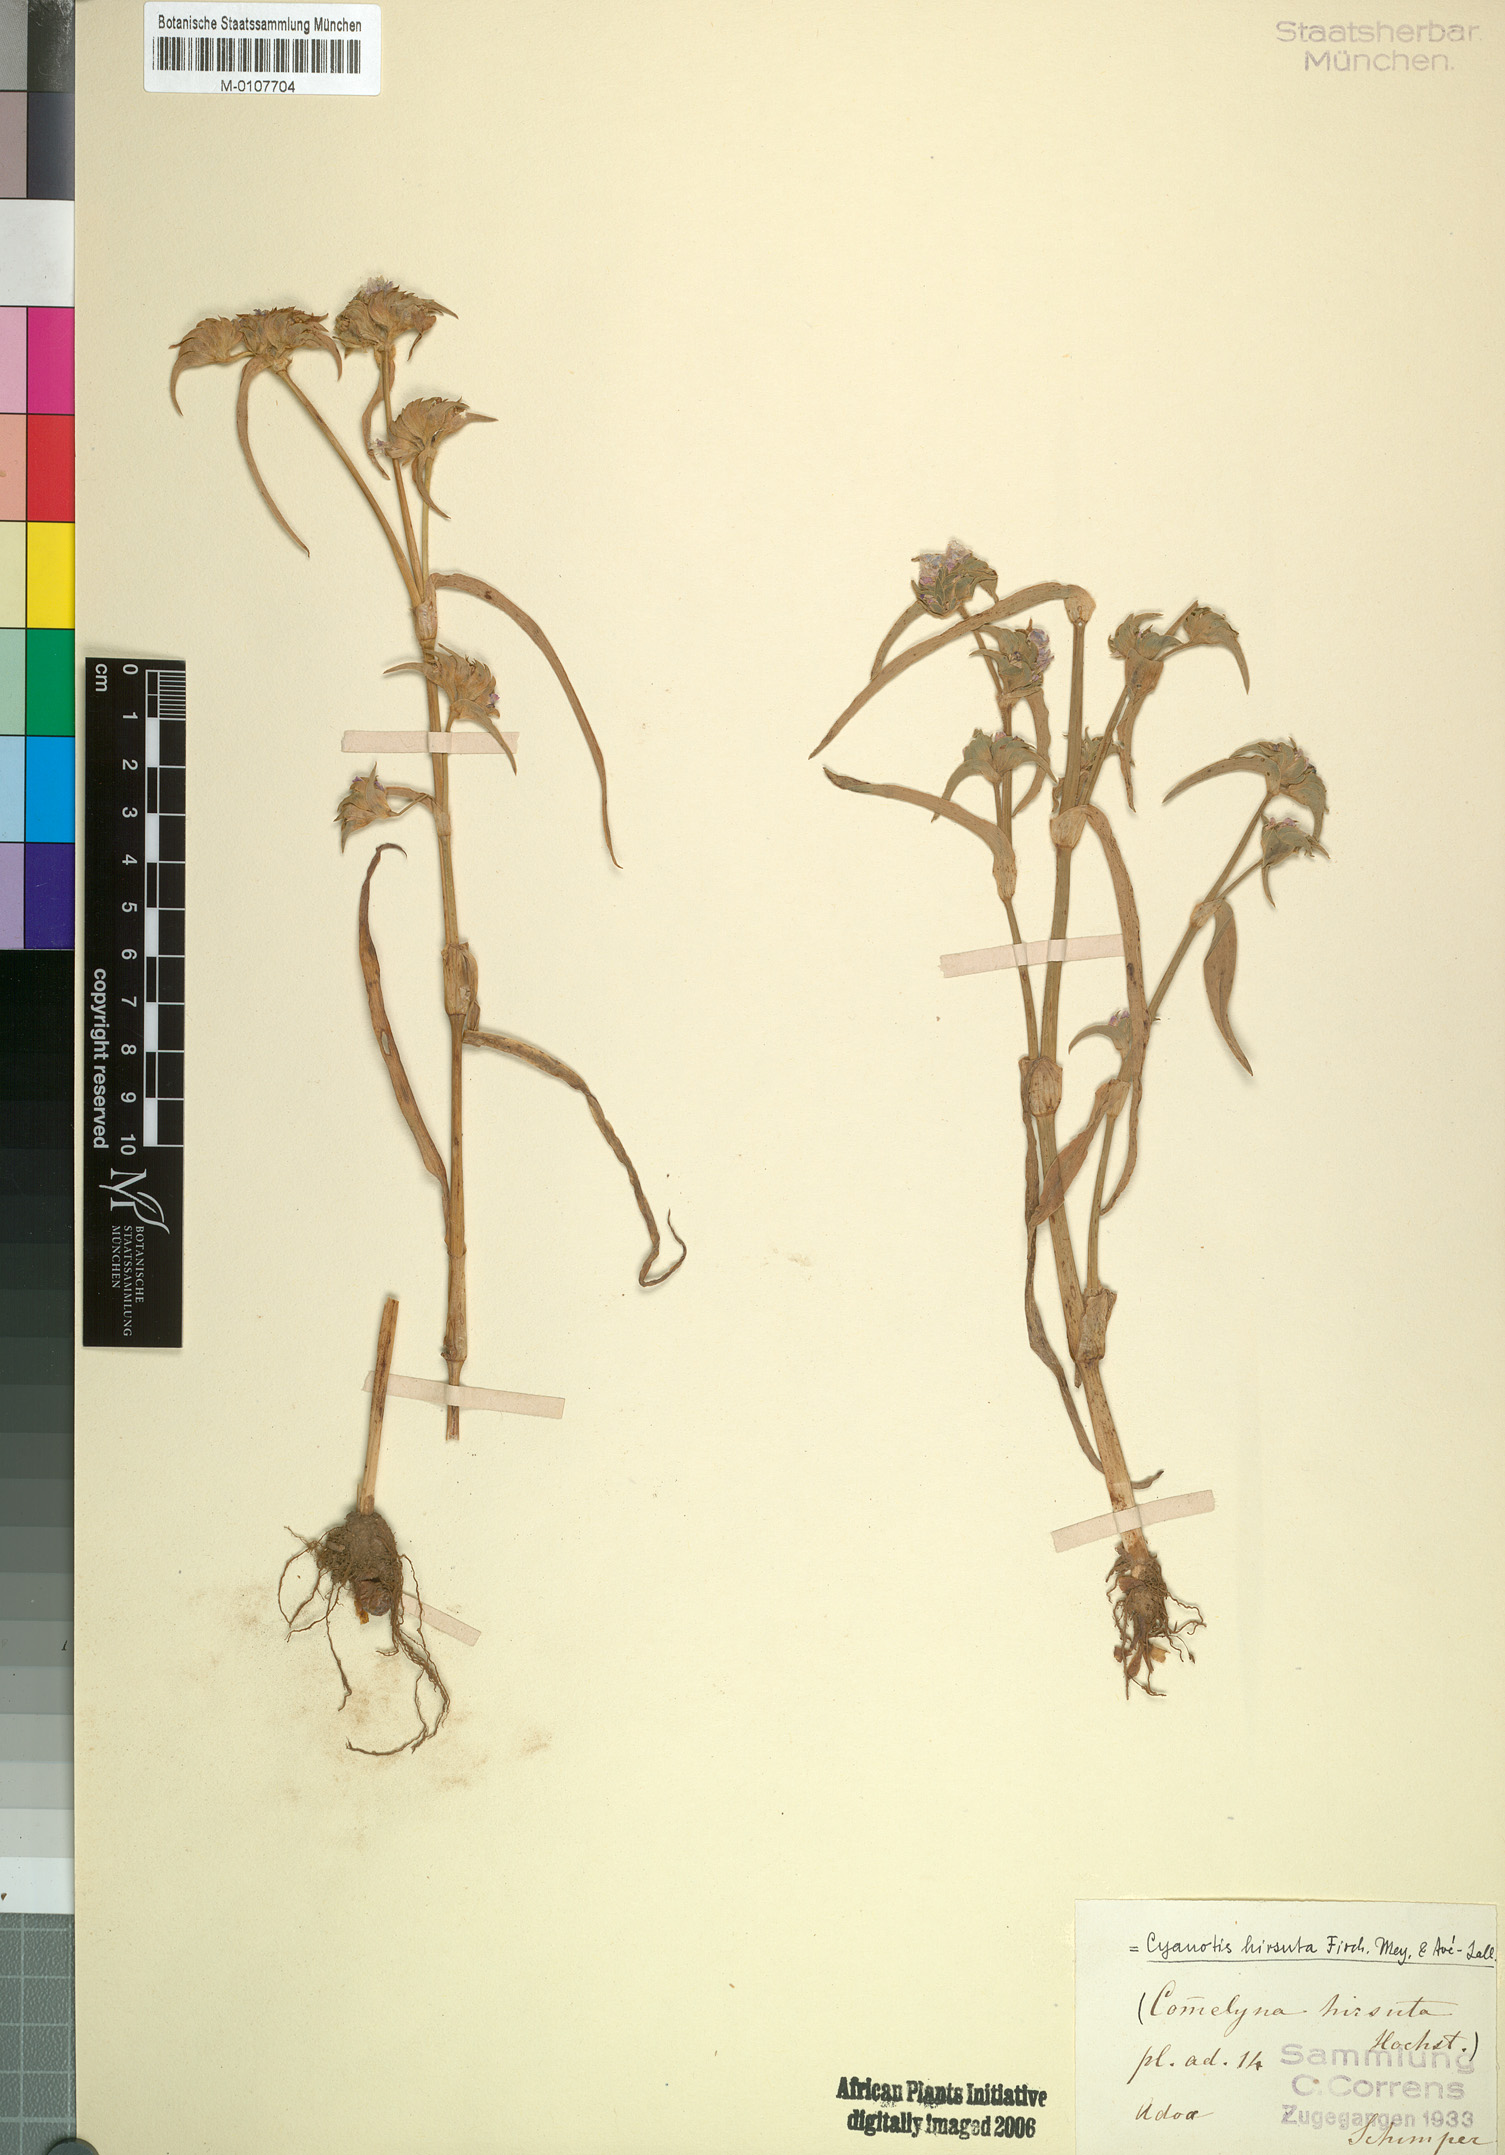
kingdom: Plantae
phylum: Tracheophyta
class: Liliopsida
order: Commelinales
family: Commelinaceae
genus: Cyanotis
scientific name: Cyanotis vaga
